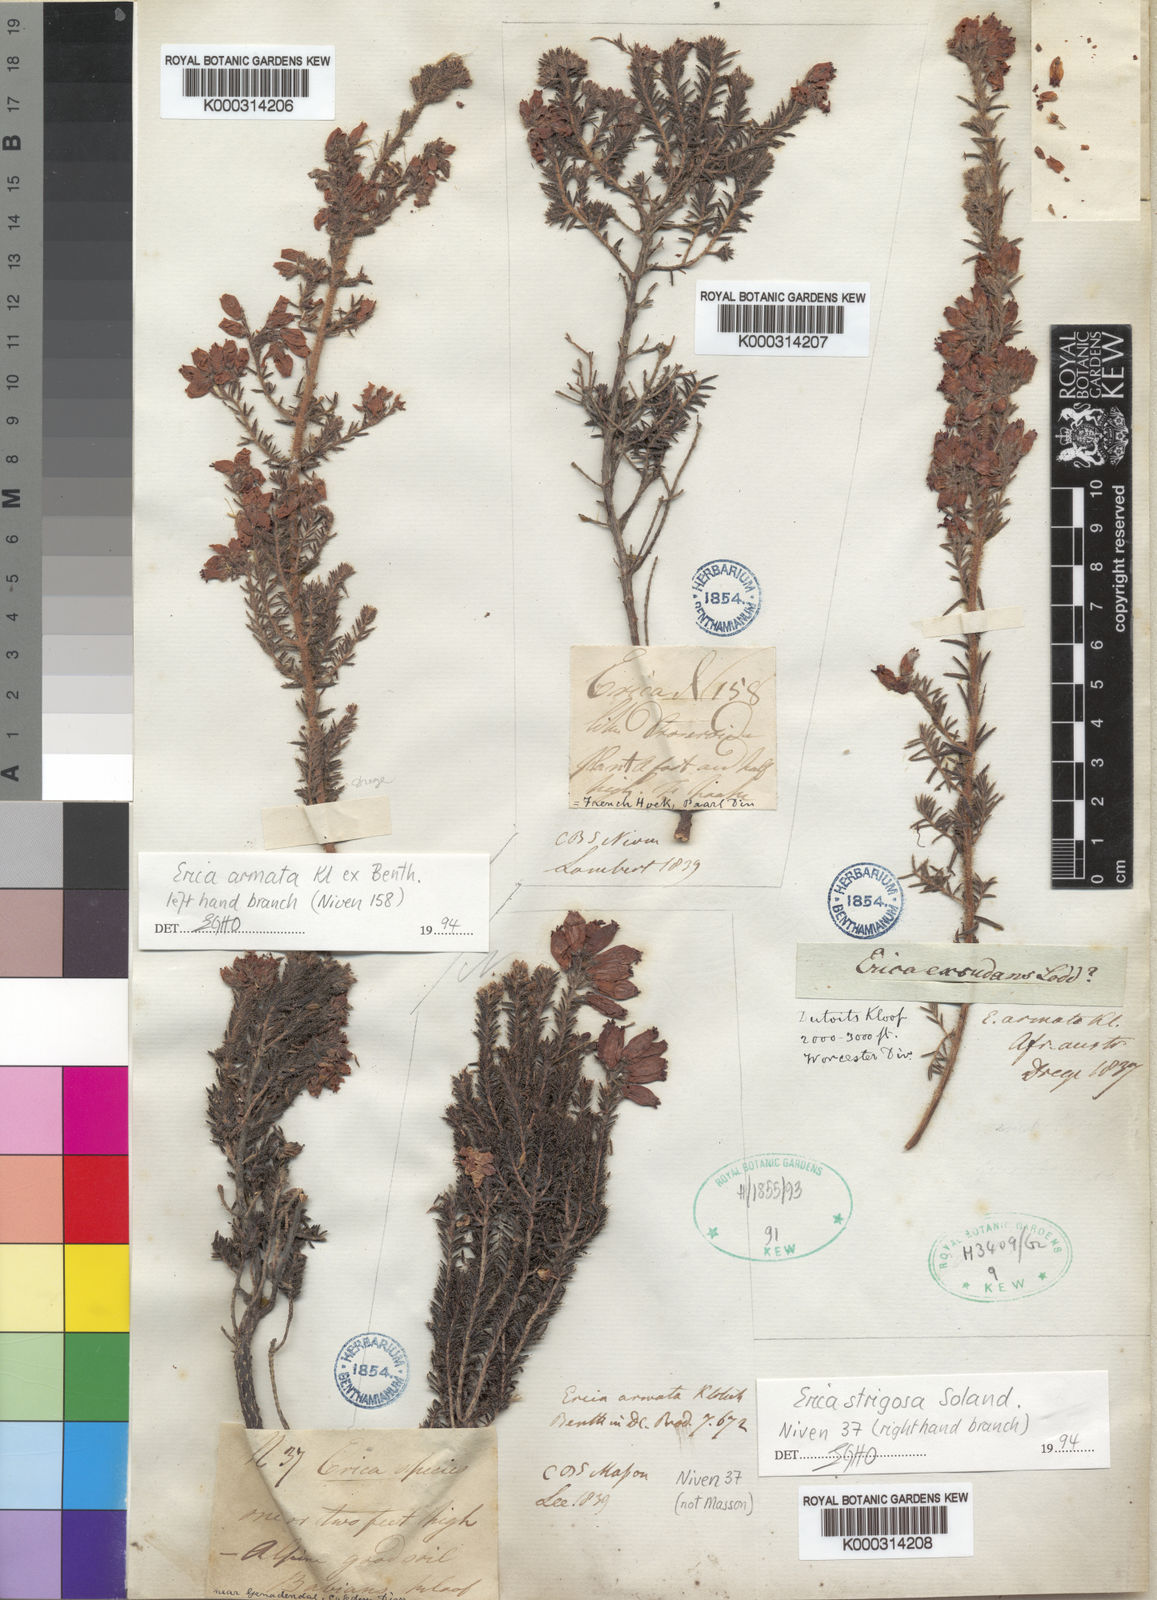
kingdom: Plantae
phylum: Tracheophyta
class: Magnoliopsida
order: Ericales
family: Ericaceae
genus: Erica
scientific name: Erica armata
